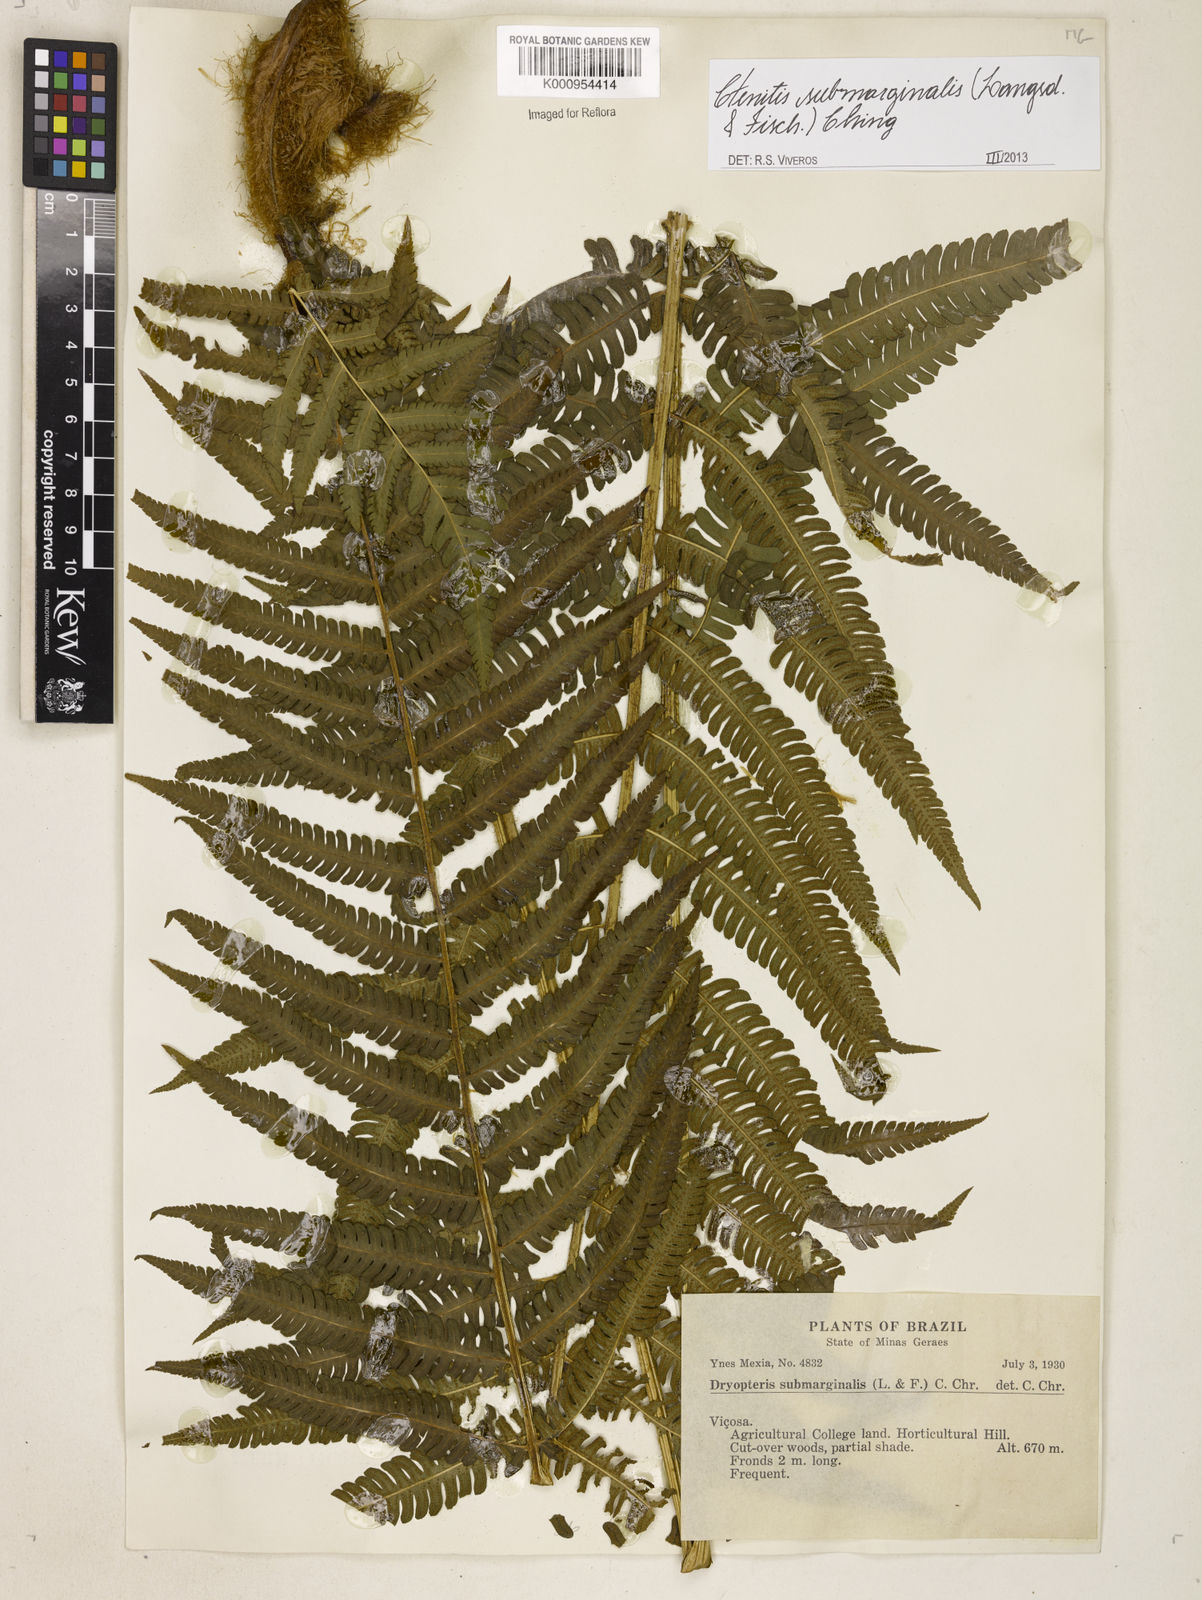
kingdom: Plantae
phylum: Tracheophyta
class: Polypodiopsida
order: Polypodiales
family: Dryopteridaceae
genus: Ctenitis
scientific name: Ctenitis submarginalis
